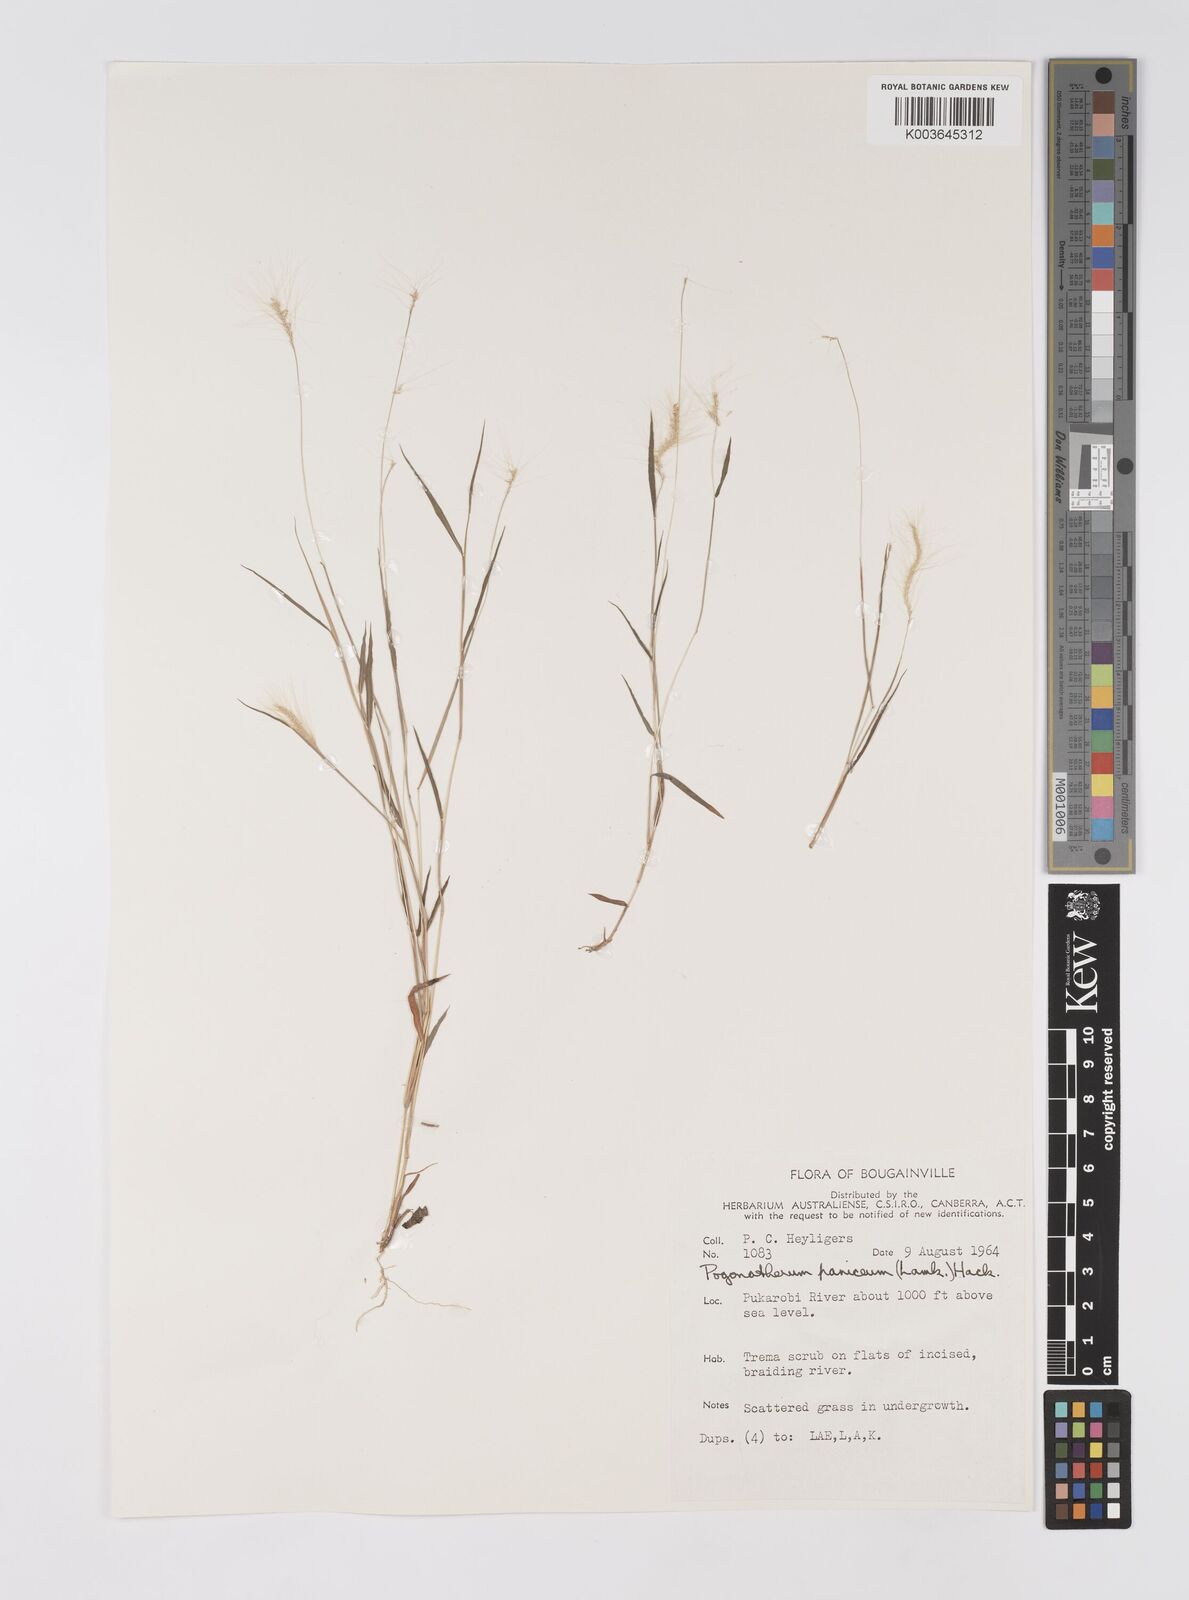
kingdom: Plantae
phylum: Tracheophyta
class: Liliopsida
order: Poales
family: Poaceae
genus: Pogonatherum
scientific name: Pogonatherum crinitum
